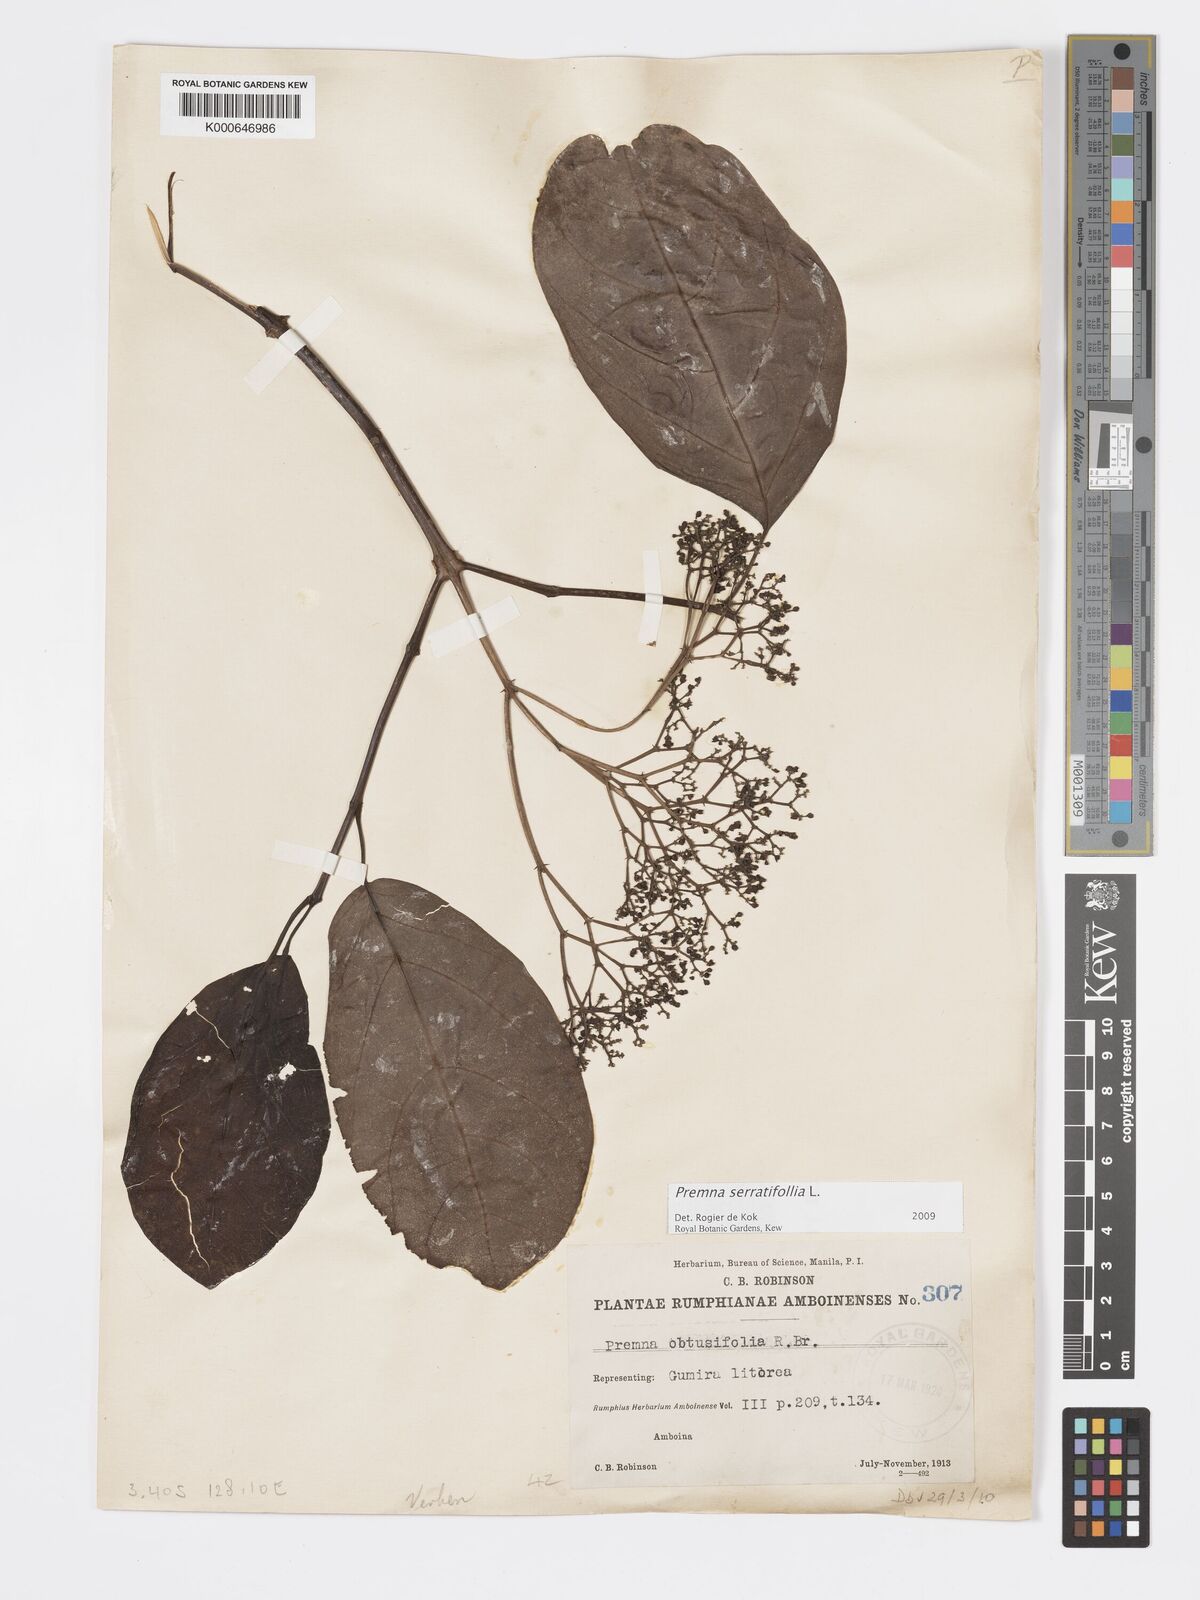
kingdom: Plantae
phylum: Tracheophyta
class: Magnoliopsida
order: Lamiales
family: Lamiaceae
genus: Premna
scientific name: Premna serratifolia
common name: Bastard guelder
